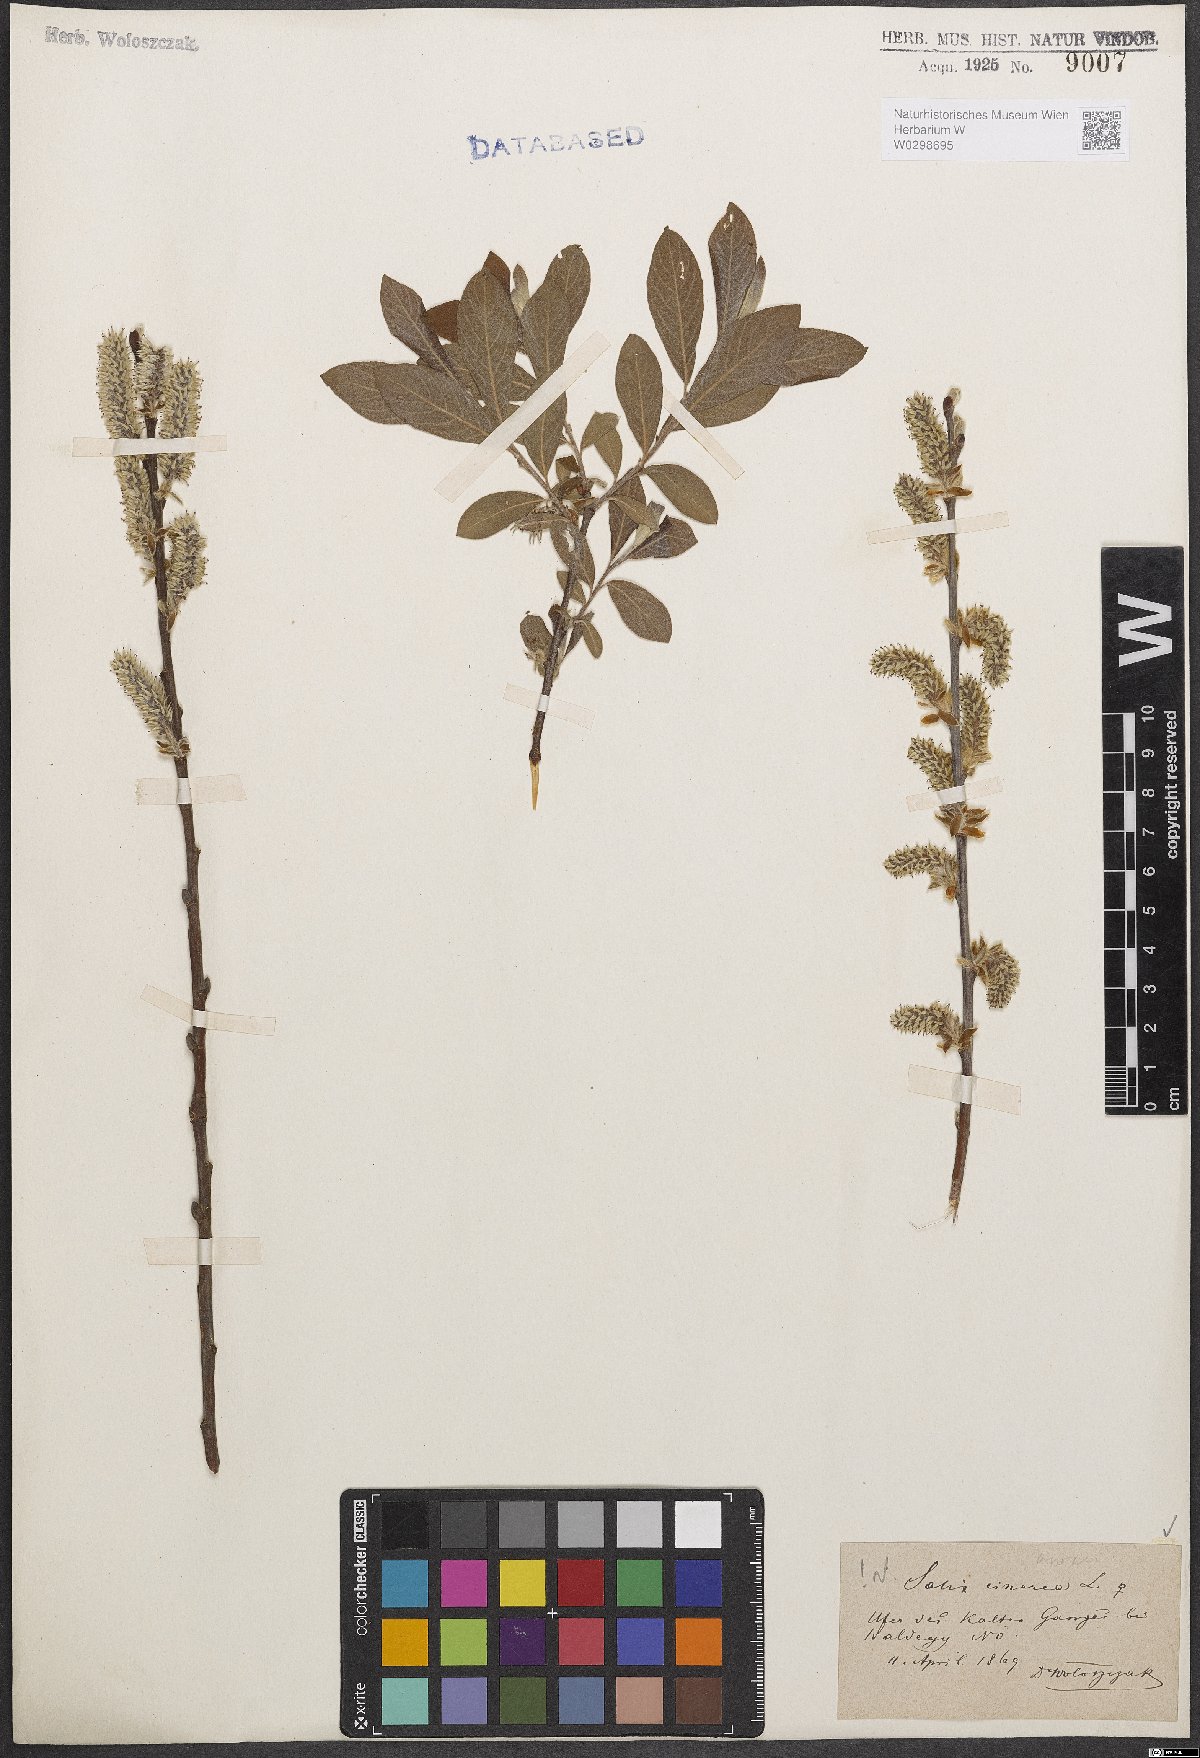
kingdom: Plantae
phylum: Tracheophyta
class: Magnoliopsida
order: Malpighiales
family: Salicaceae
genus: Salix
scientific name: Salix cinerea
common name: Common sallow
